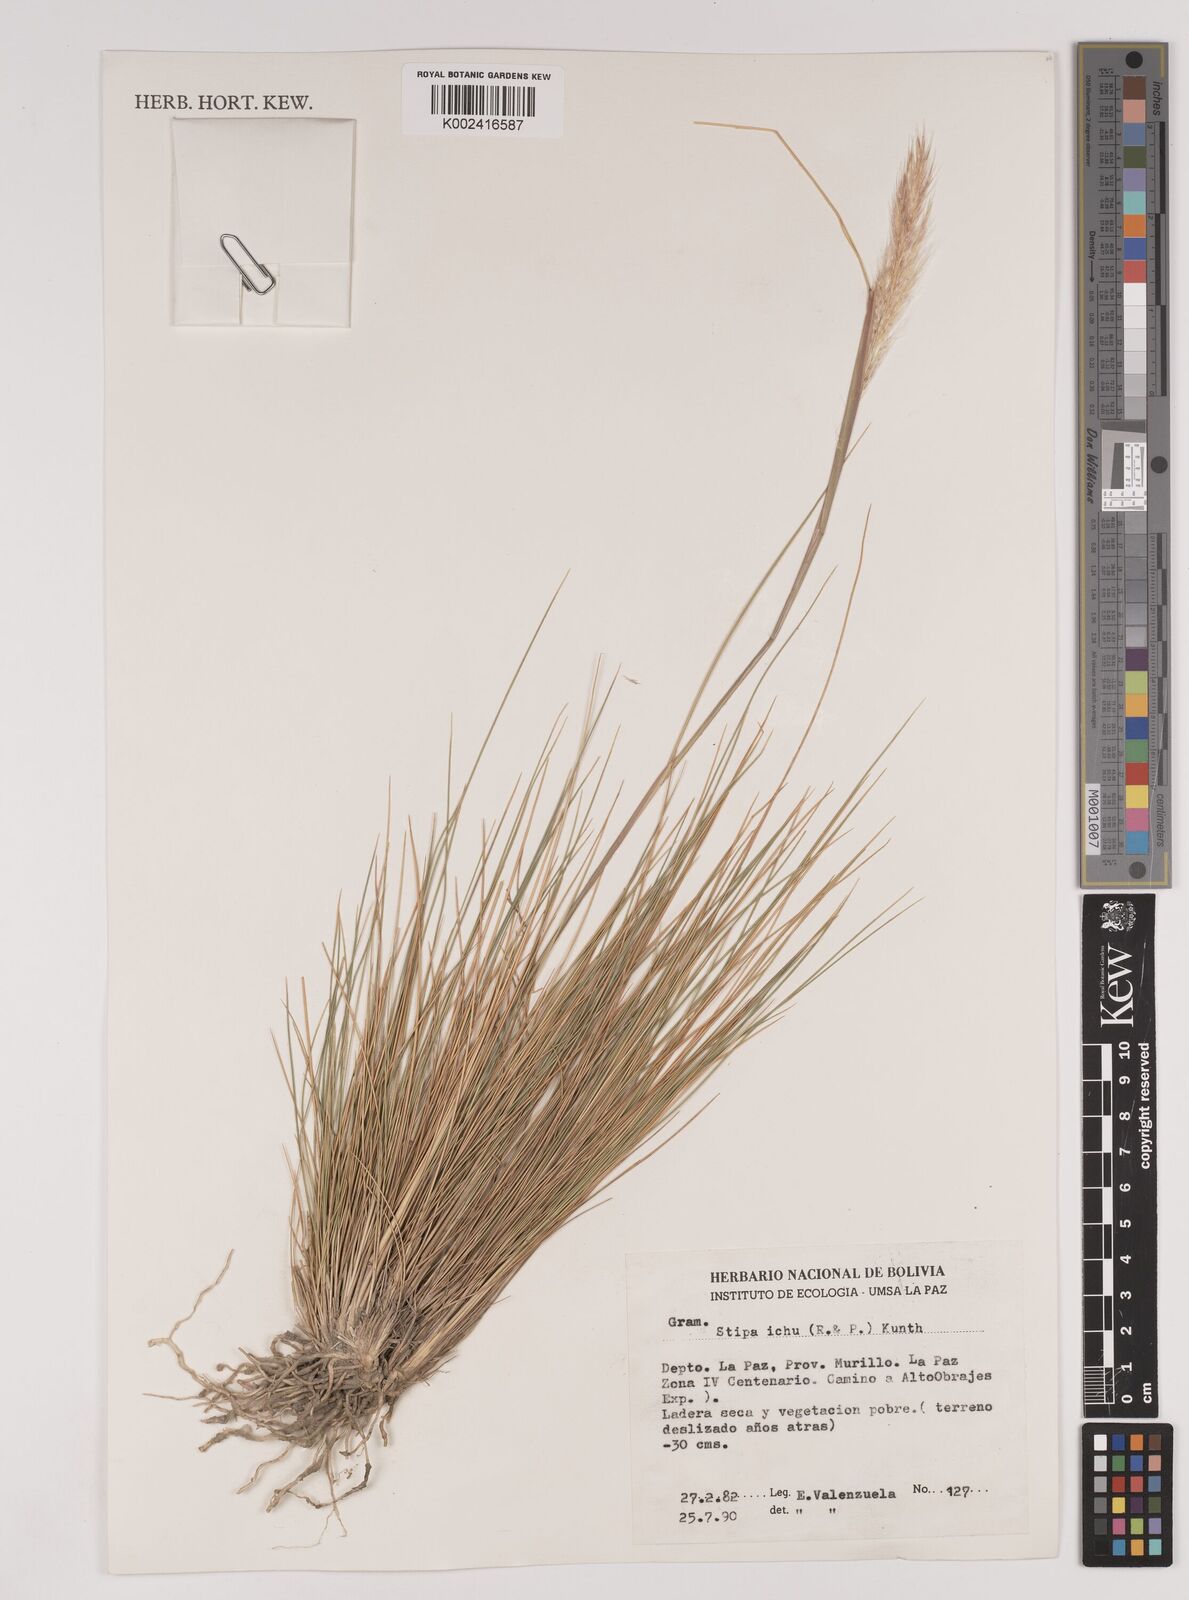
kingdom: Plantae
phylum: Tracheophyta
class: Liliopsida
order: Poales
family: Poaceae
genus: Jarava
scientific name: Jarava leptostachya
